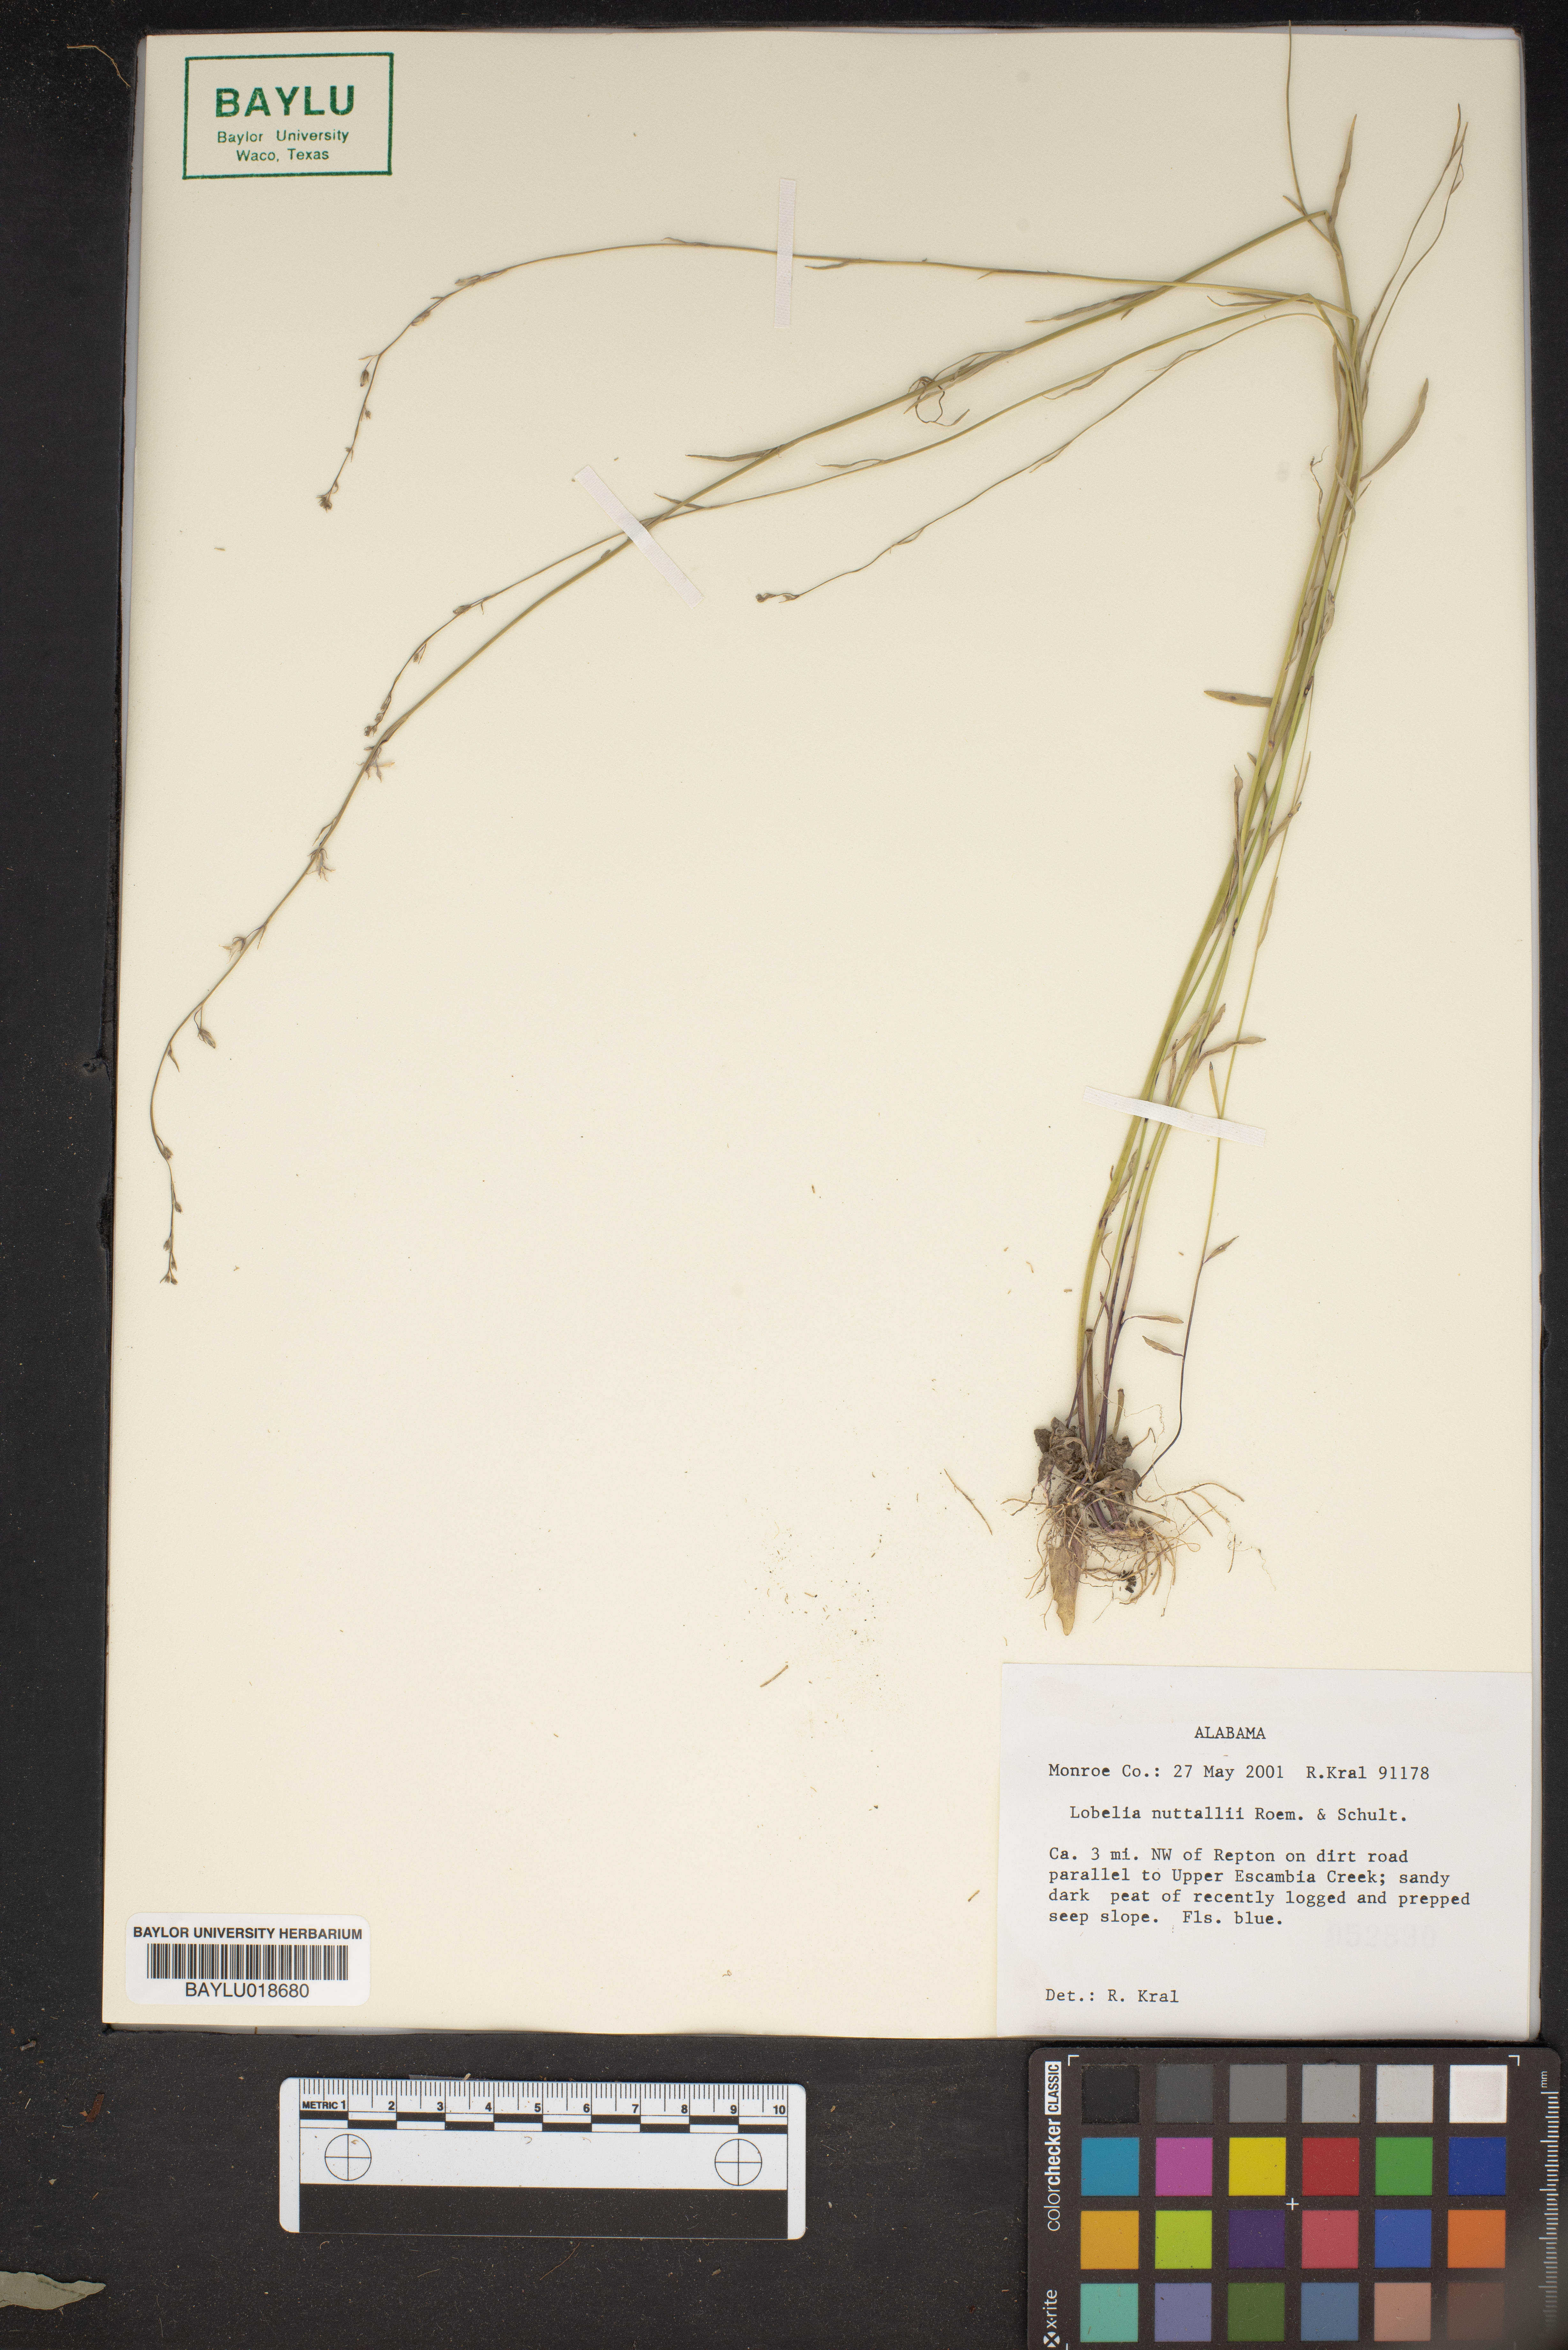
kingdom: Plantae
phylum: Tracheophyta
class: Magnoliopsida
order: Asterales
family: Campanulaceae
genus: Lobelia
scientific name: Lobelia nuttallii
